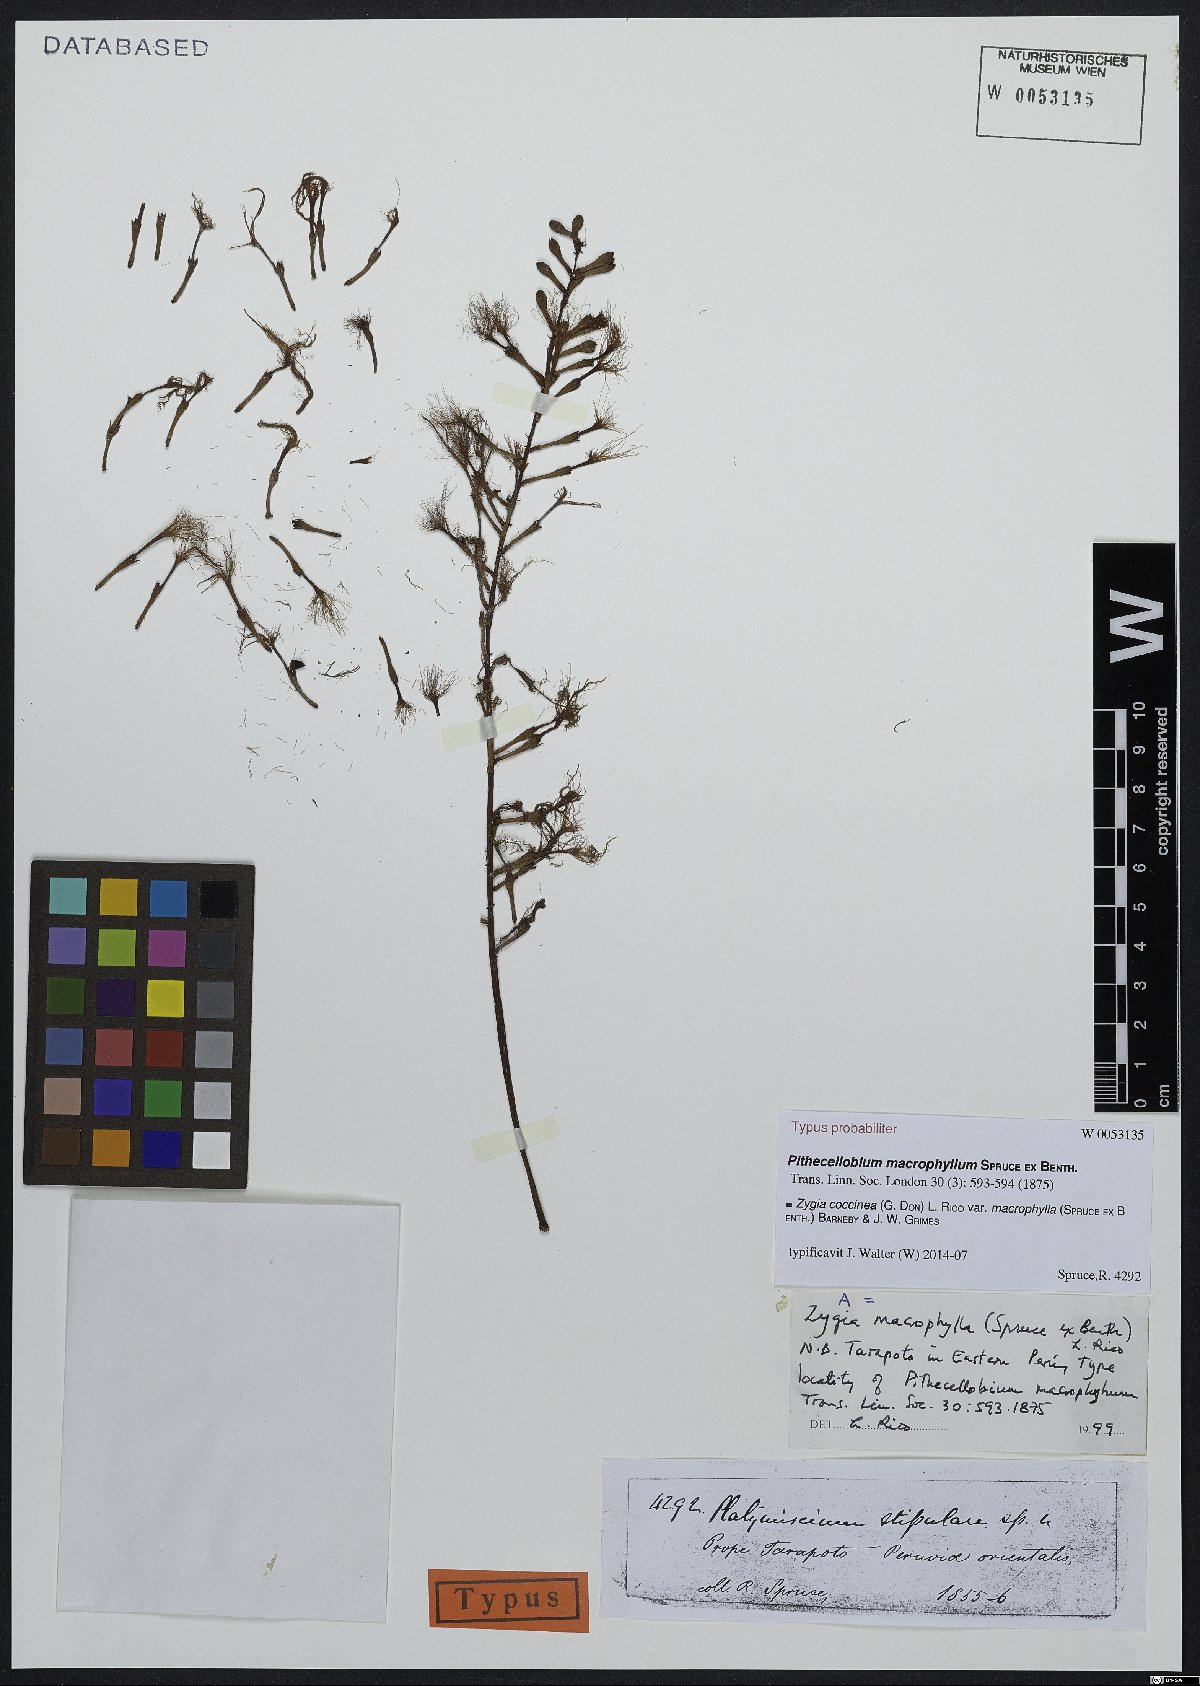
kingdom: Plantae
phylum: Tracheophyta
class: Magnoliopsida
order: Fabales
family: Fabaceae
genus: Zygia
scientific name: Zygia coccinea
